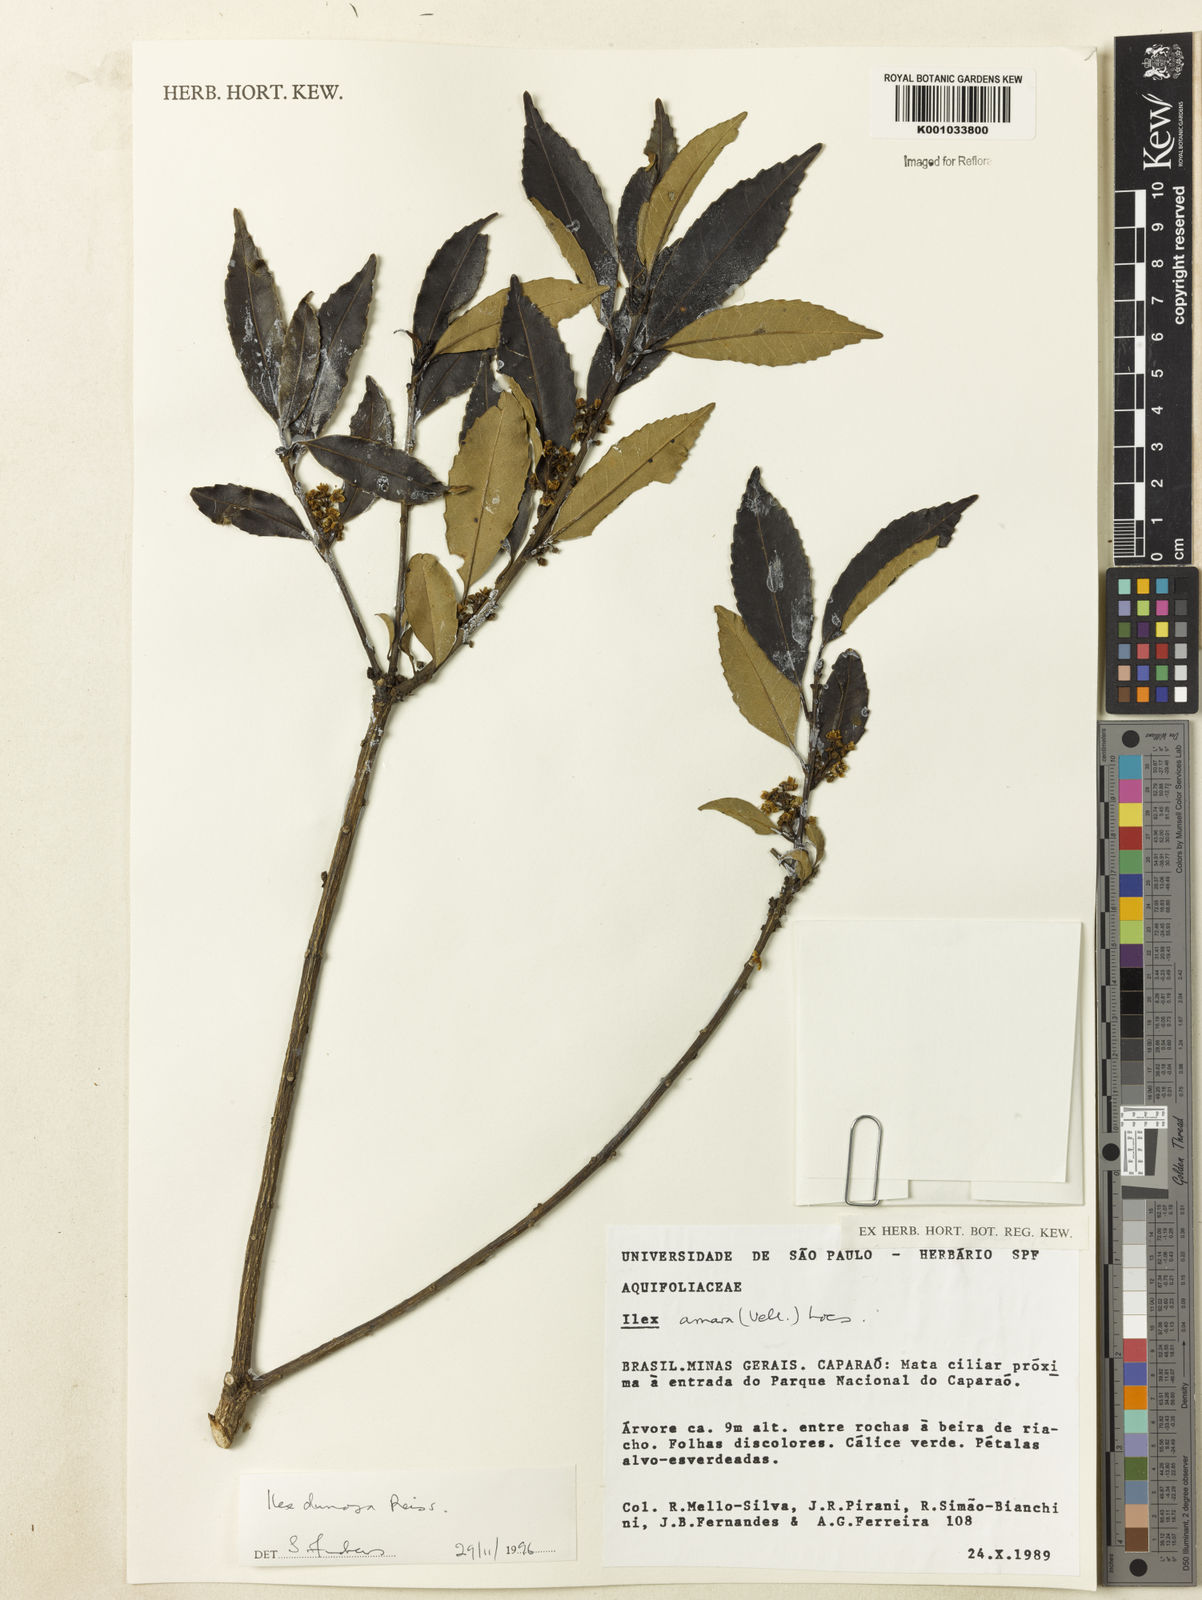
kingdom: Plantae
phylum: Tracheophyta
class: Magnoliopsida
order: Aquifoliales
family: Aquifoliaceae
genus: Ilex
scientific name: Ilex dumosa
